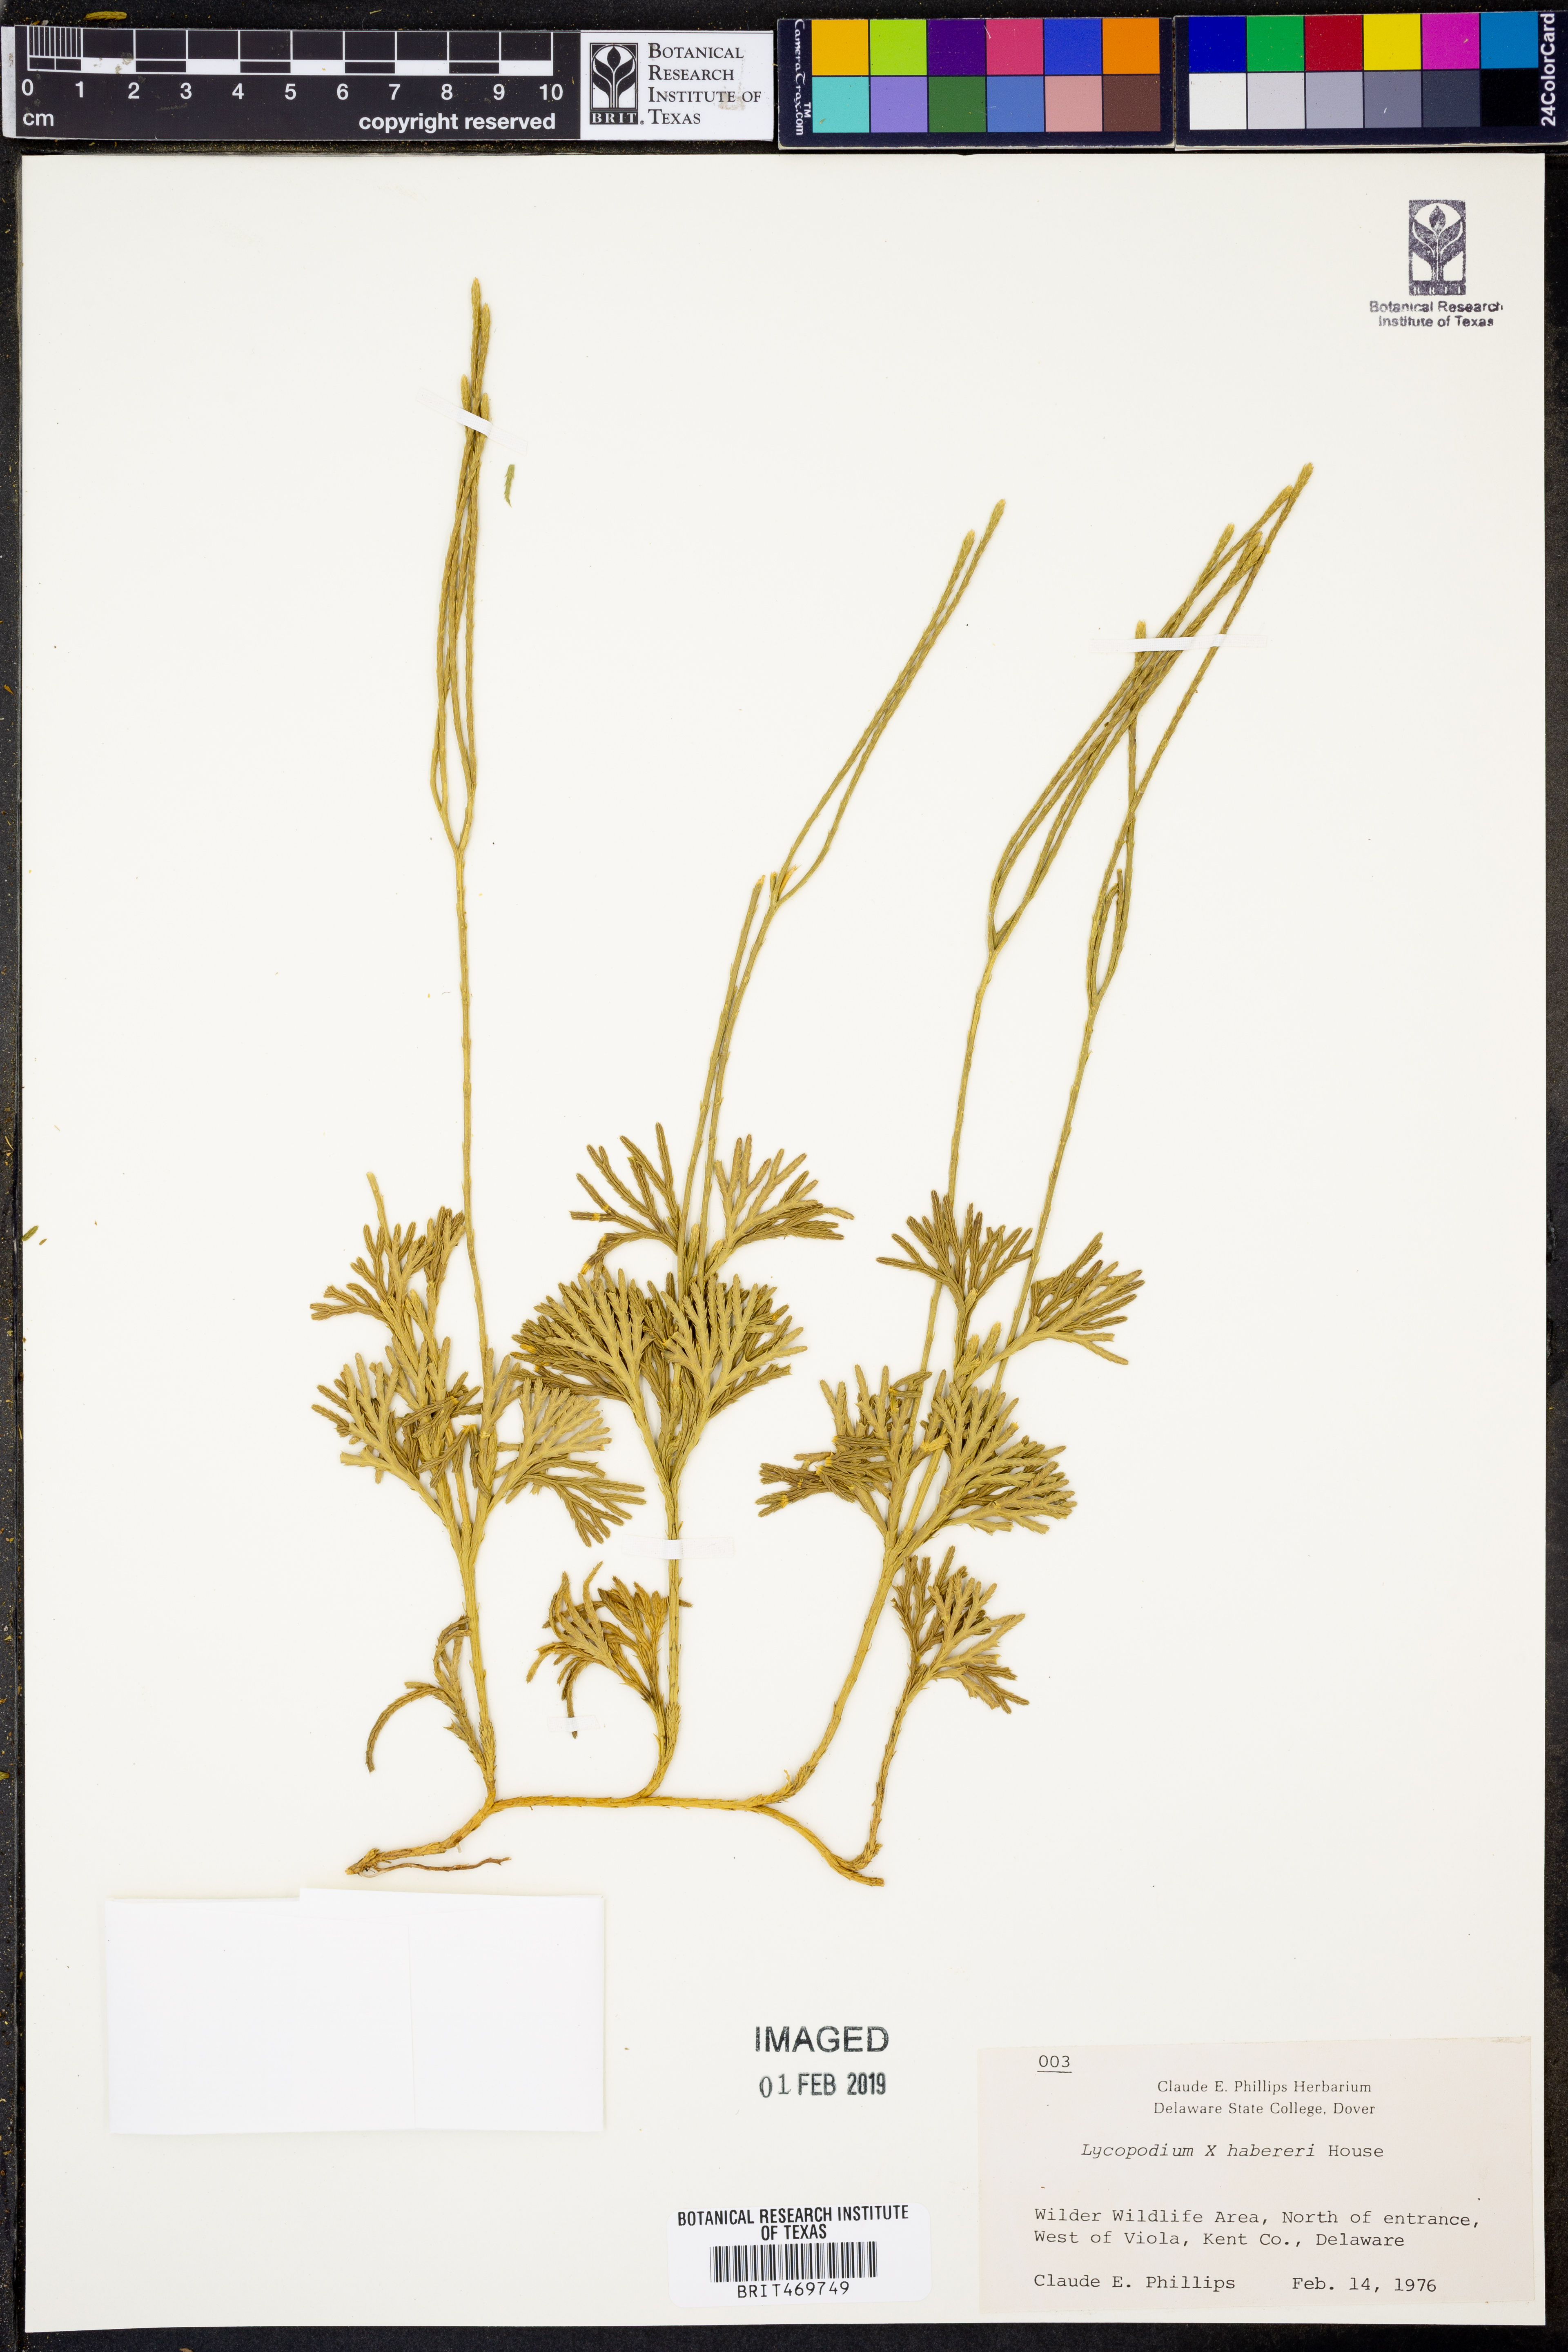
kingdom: Plantae
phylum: Tracheophyta
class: Lycopodiopsida
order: Lycopodiales
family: Lycopodiaceae
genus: Lycopodium
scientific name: Lycopodium
